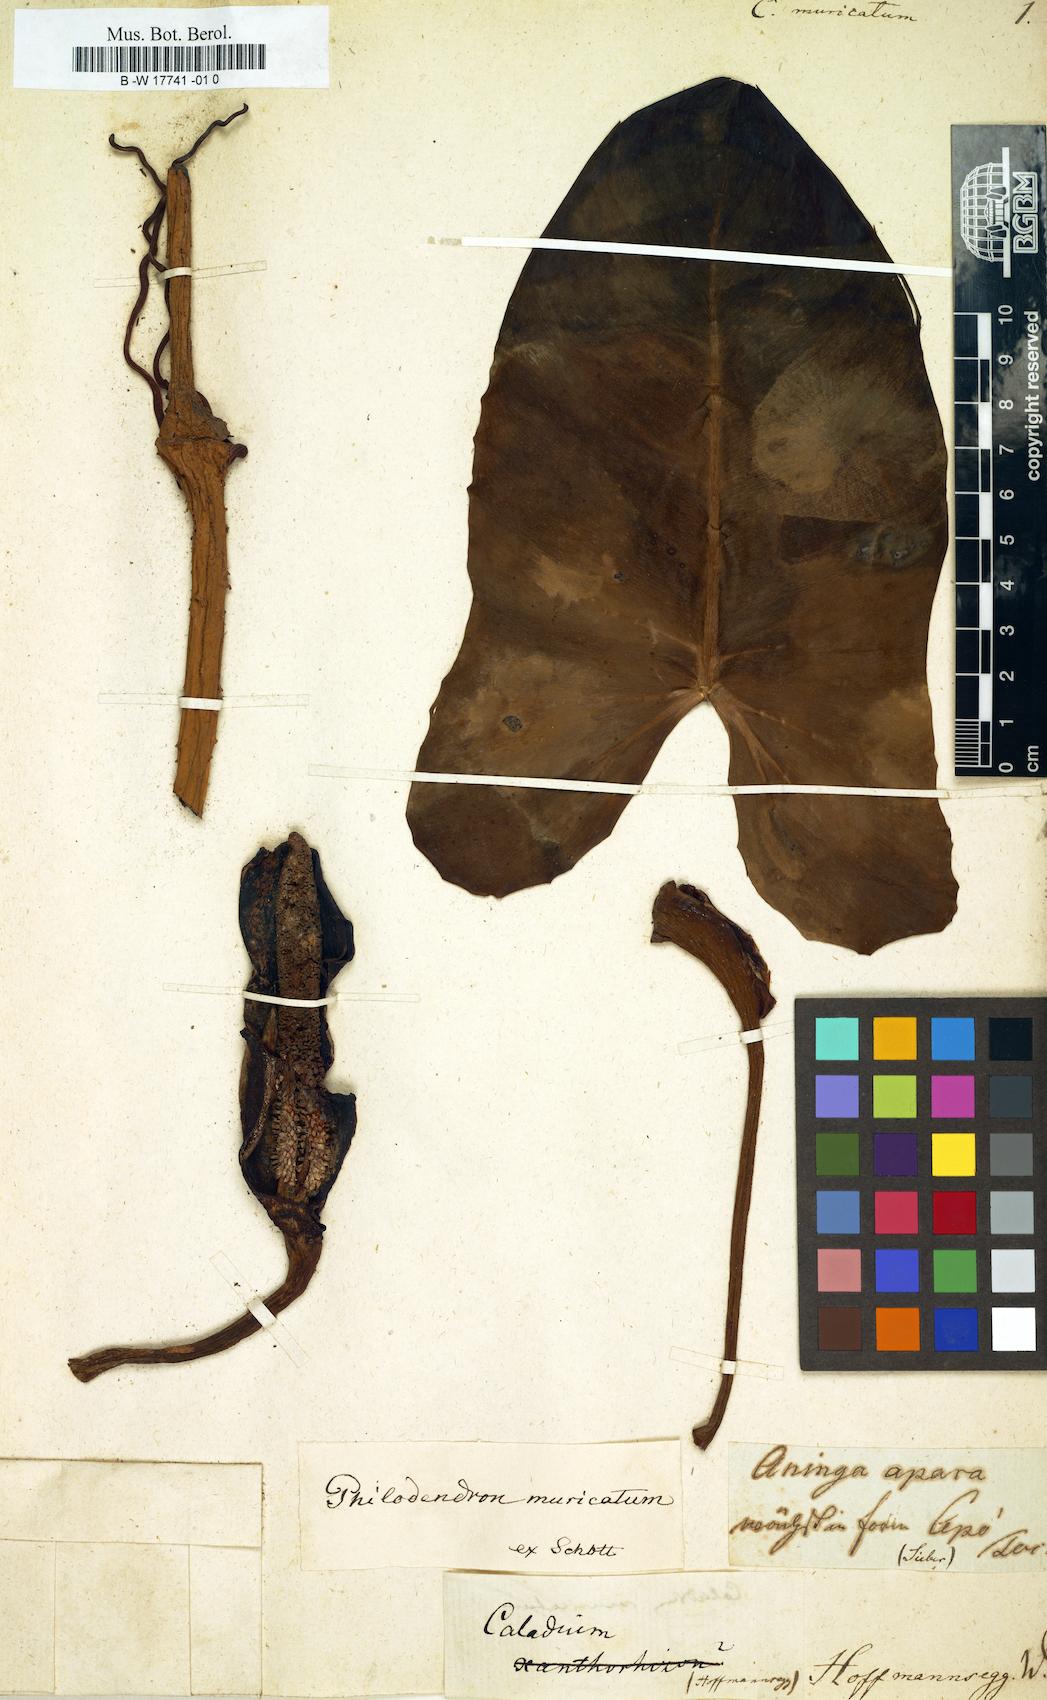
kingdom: Plantae
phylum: Tracheophyta
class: Liliopsida
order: Alismatales
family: Araceae
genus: Caladium
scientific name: Caladium muricatum
